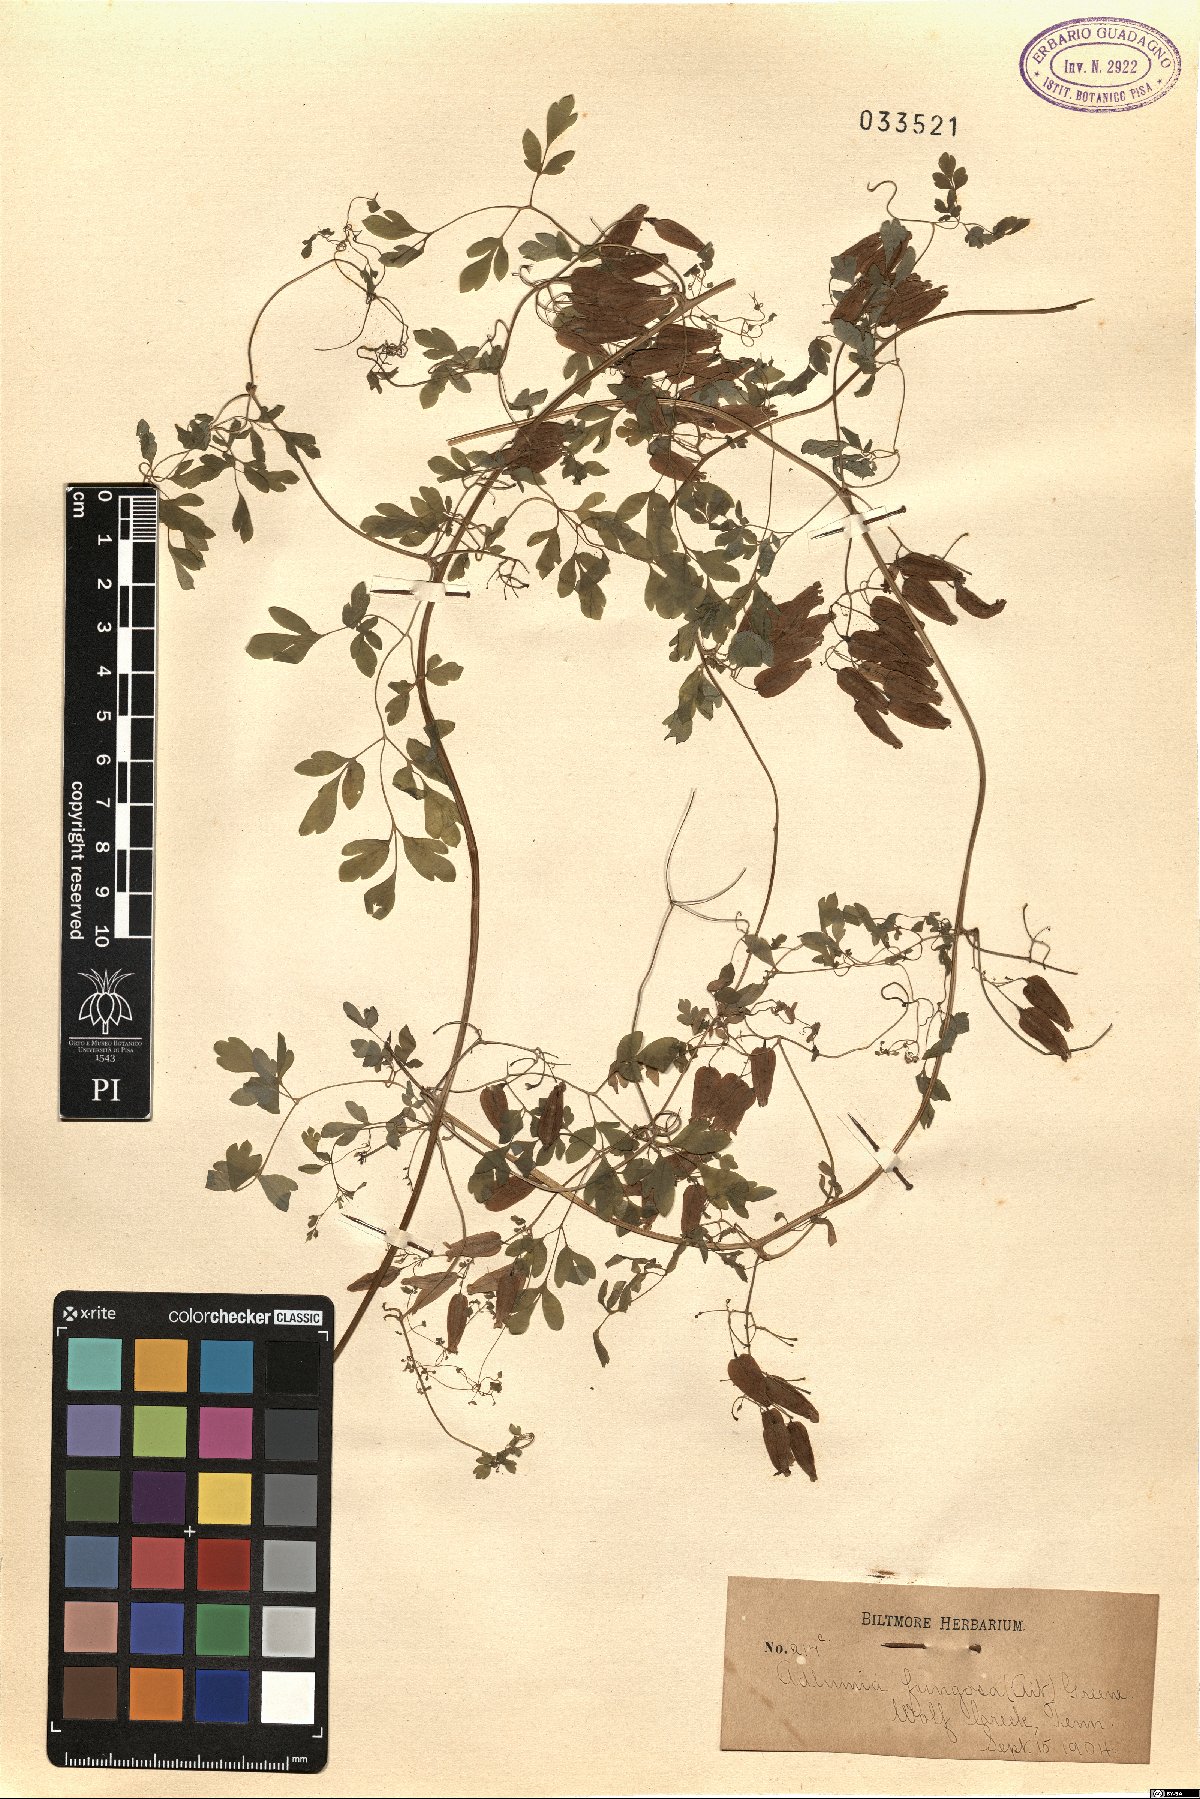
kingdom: Plantae
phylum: Tracheophyta
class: Magnoliopsida
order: Ranunculales
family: Papaveraceae
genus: Adlumia
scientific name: Adlumia fungosa
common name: Mountain-fringe
